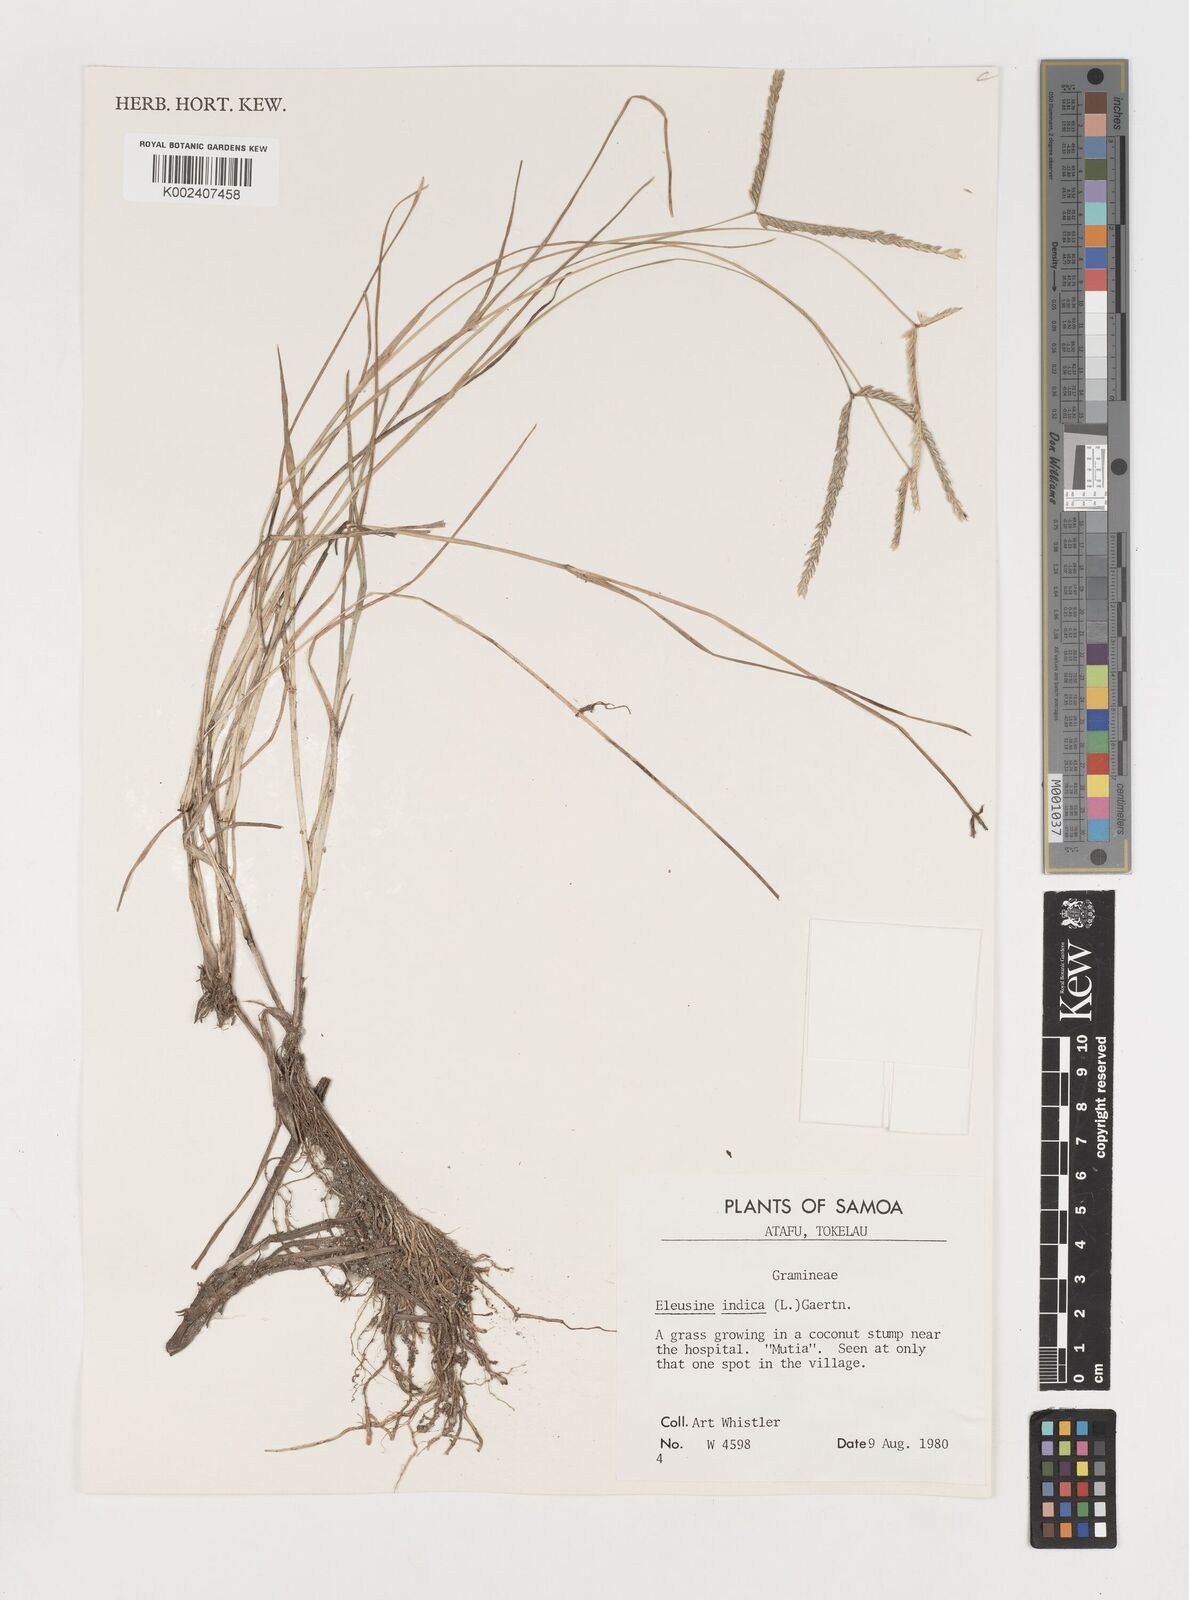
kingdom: Plantae
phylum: Tracheophyta
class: Liliopsida
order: Poales
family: Poaceae
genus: Eleusine
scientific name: Eleusine indica
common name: Yard-grass
